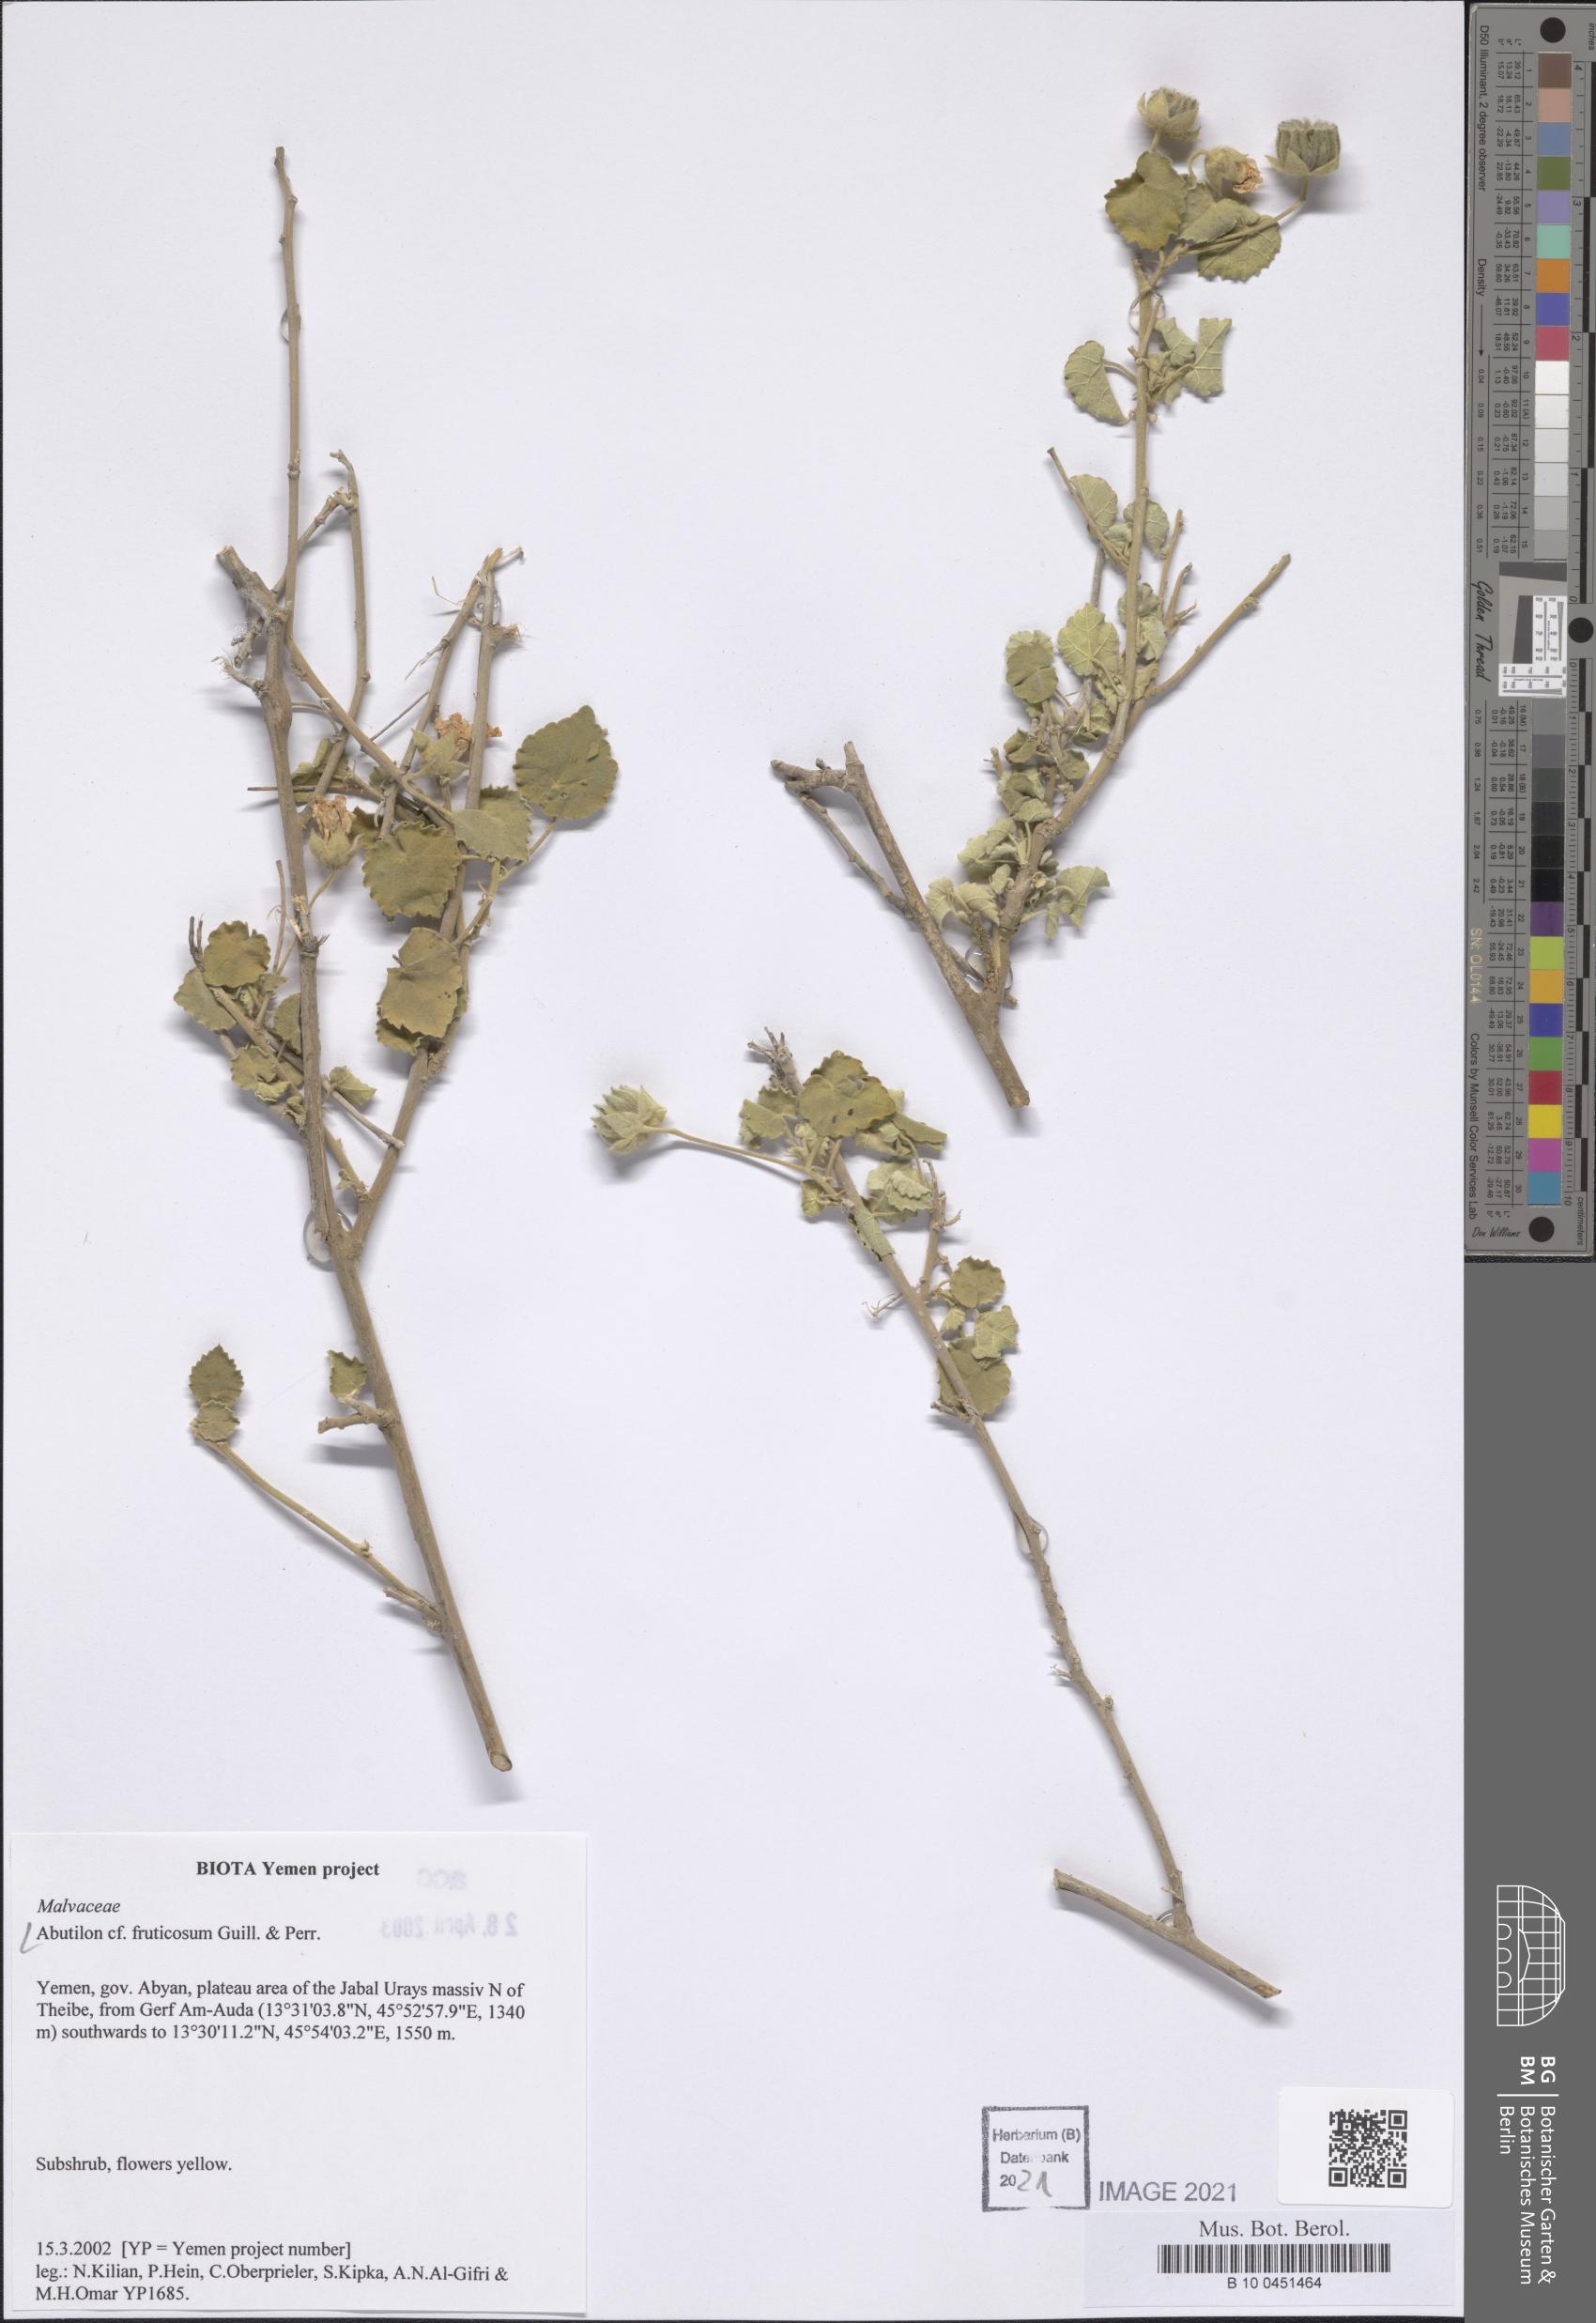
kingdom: Plantae
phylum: Tracheophyta
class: Magnoliopsida
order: Malvales
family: Malvaceae
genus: Abutilon
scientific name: Abutilon fruticosum
